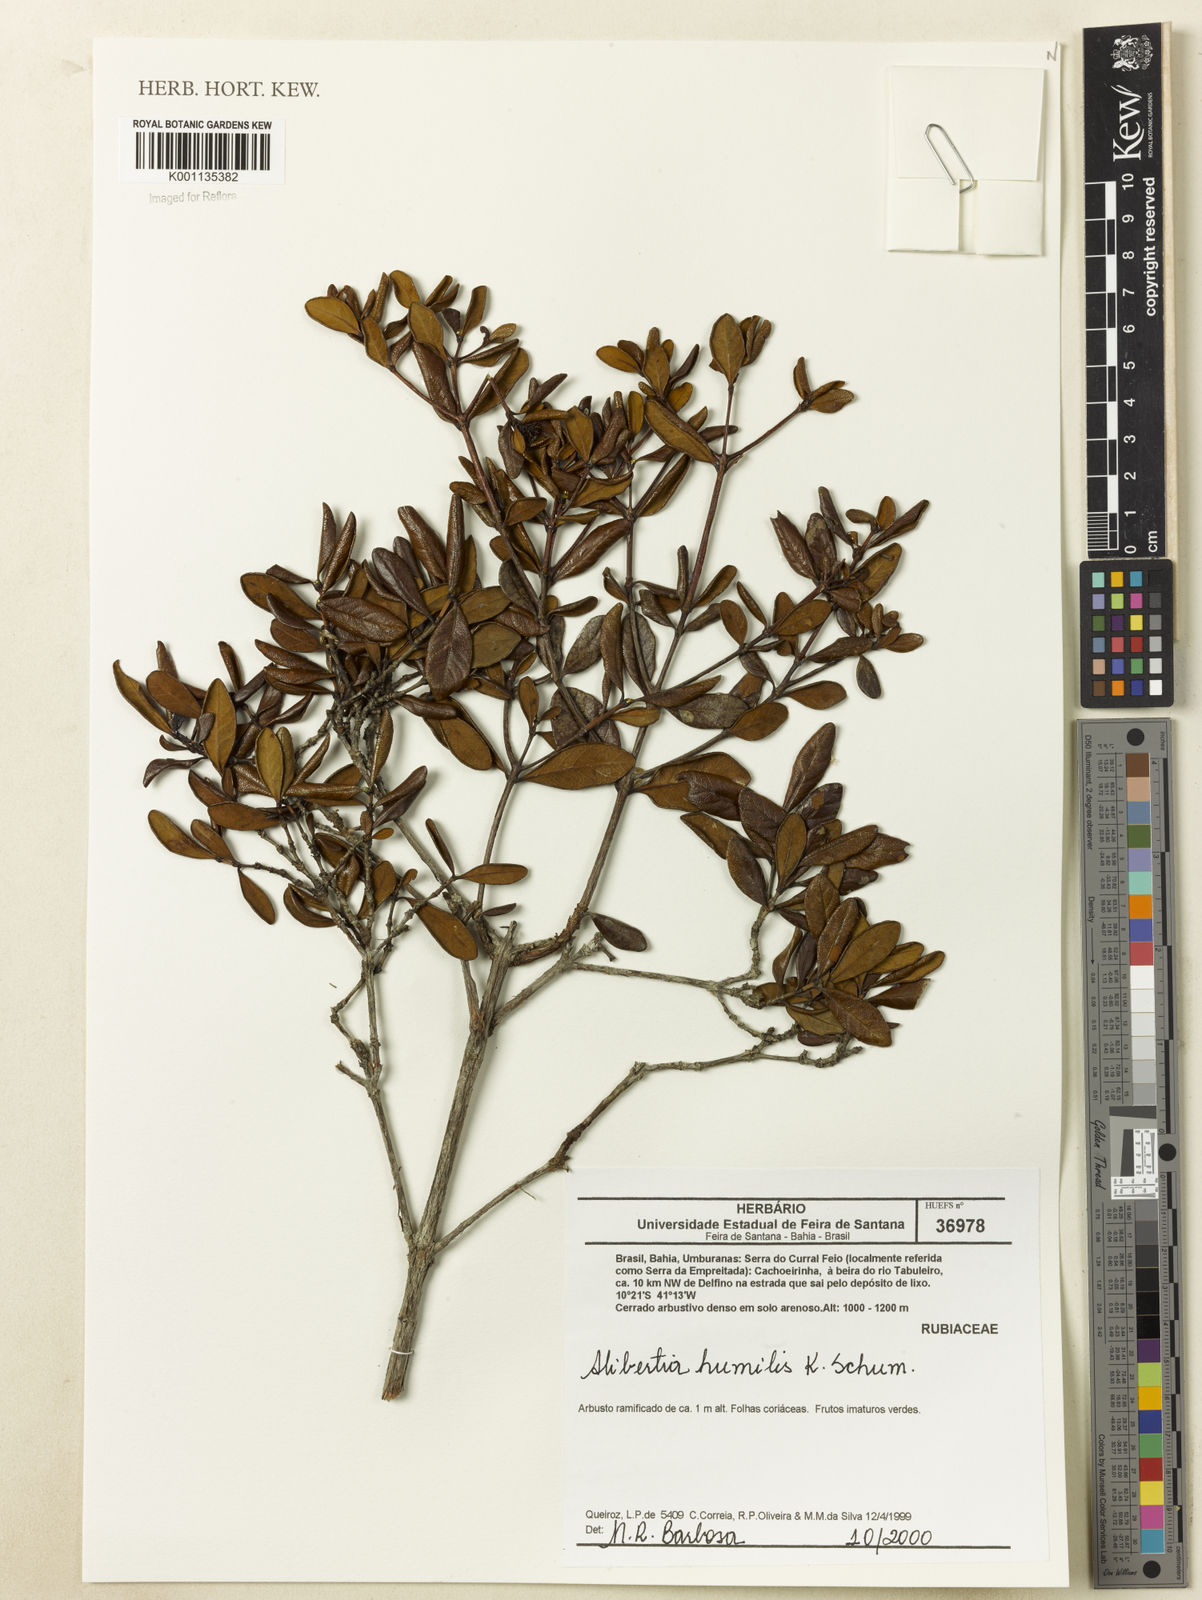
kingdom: Plantae
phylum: Tracheophyta
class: Magnoliopsida
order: Gentianales
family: Rubiaceae
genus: Cordiera
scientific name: Cordiera humilis
